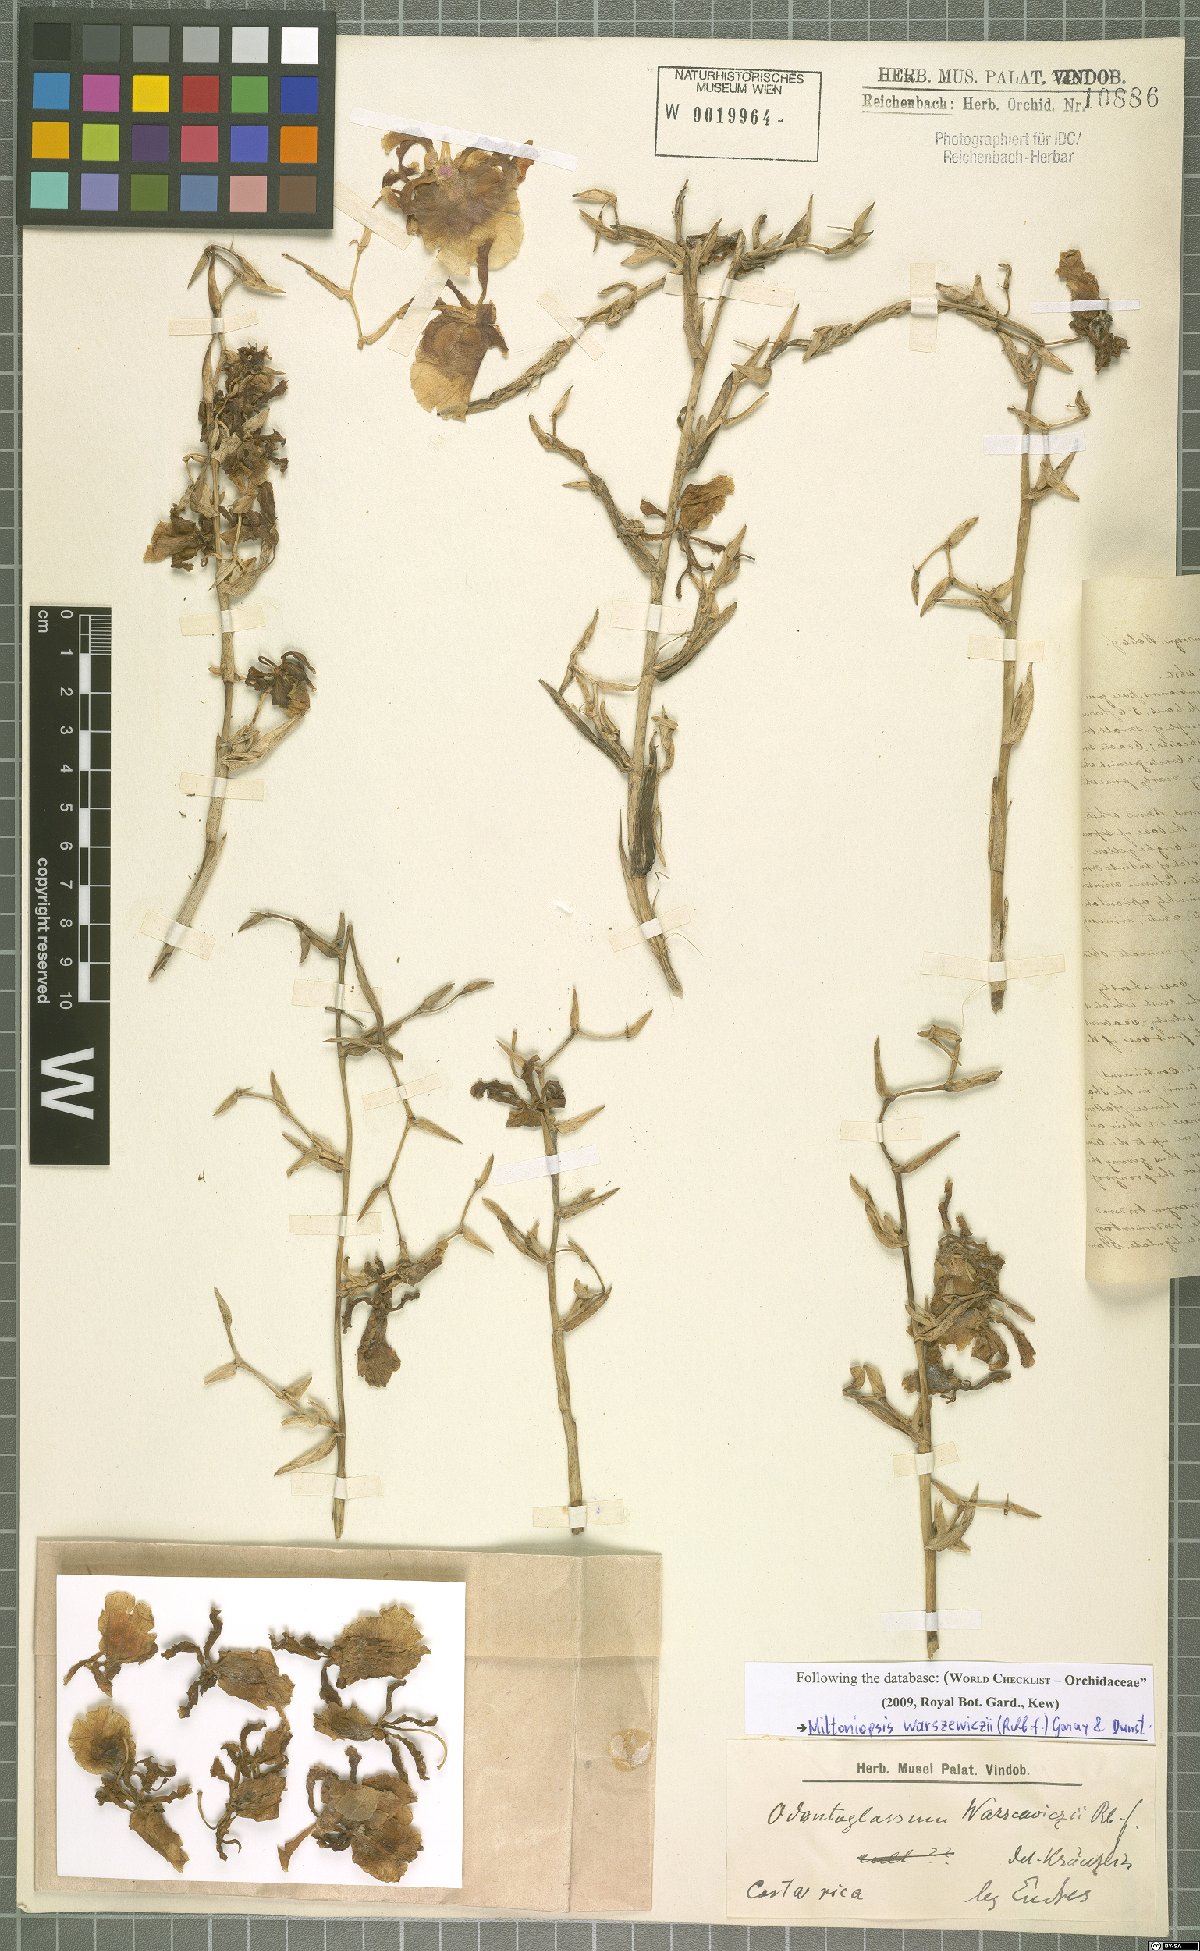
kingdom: Plantae
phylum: Tracheophyta
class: Liliopsida
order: Asparagales
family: Orchidaceae
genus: Lepanthes
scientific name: Lepanthes blephariglossa
